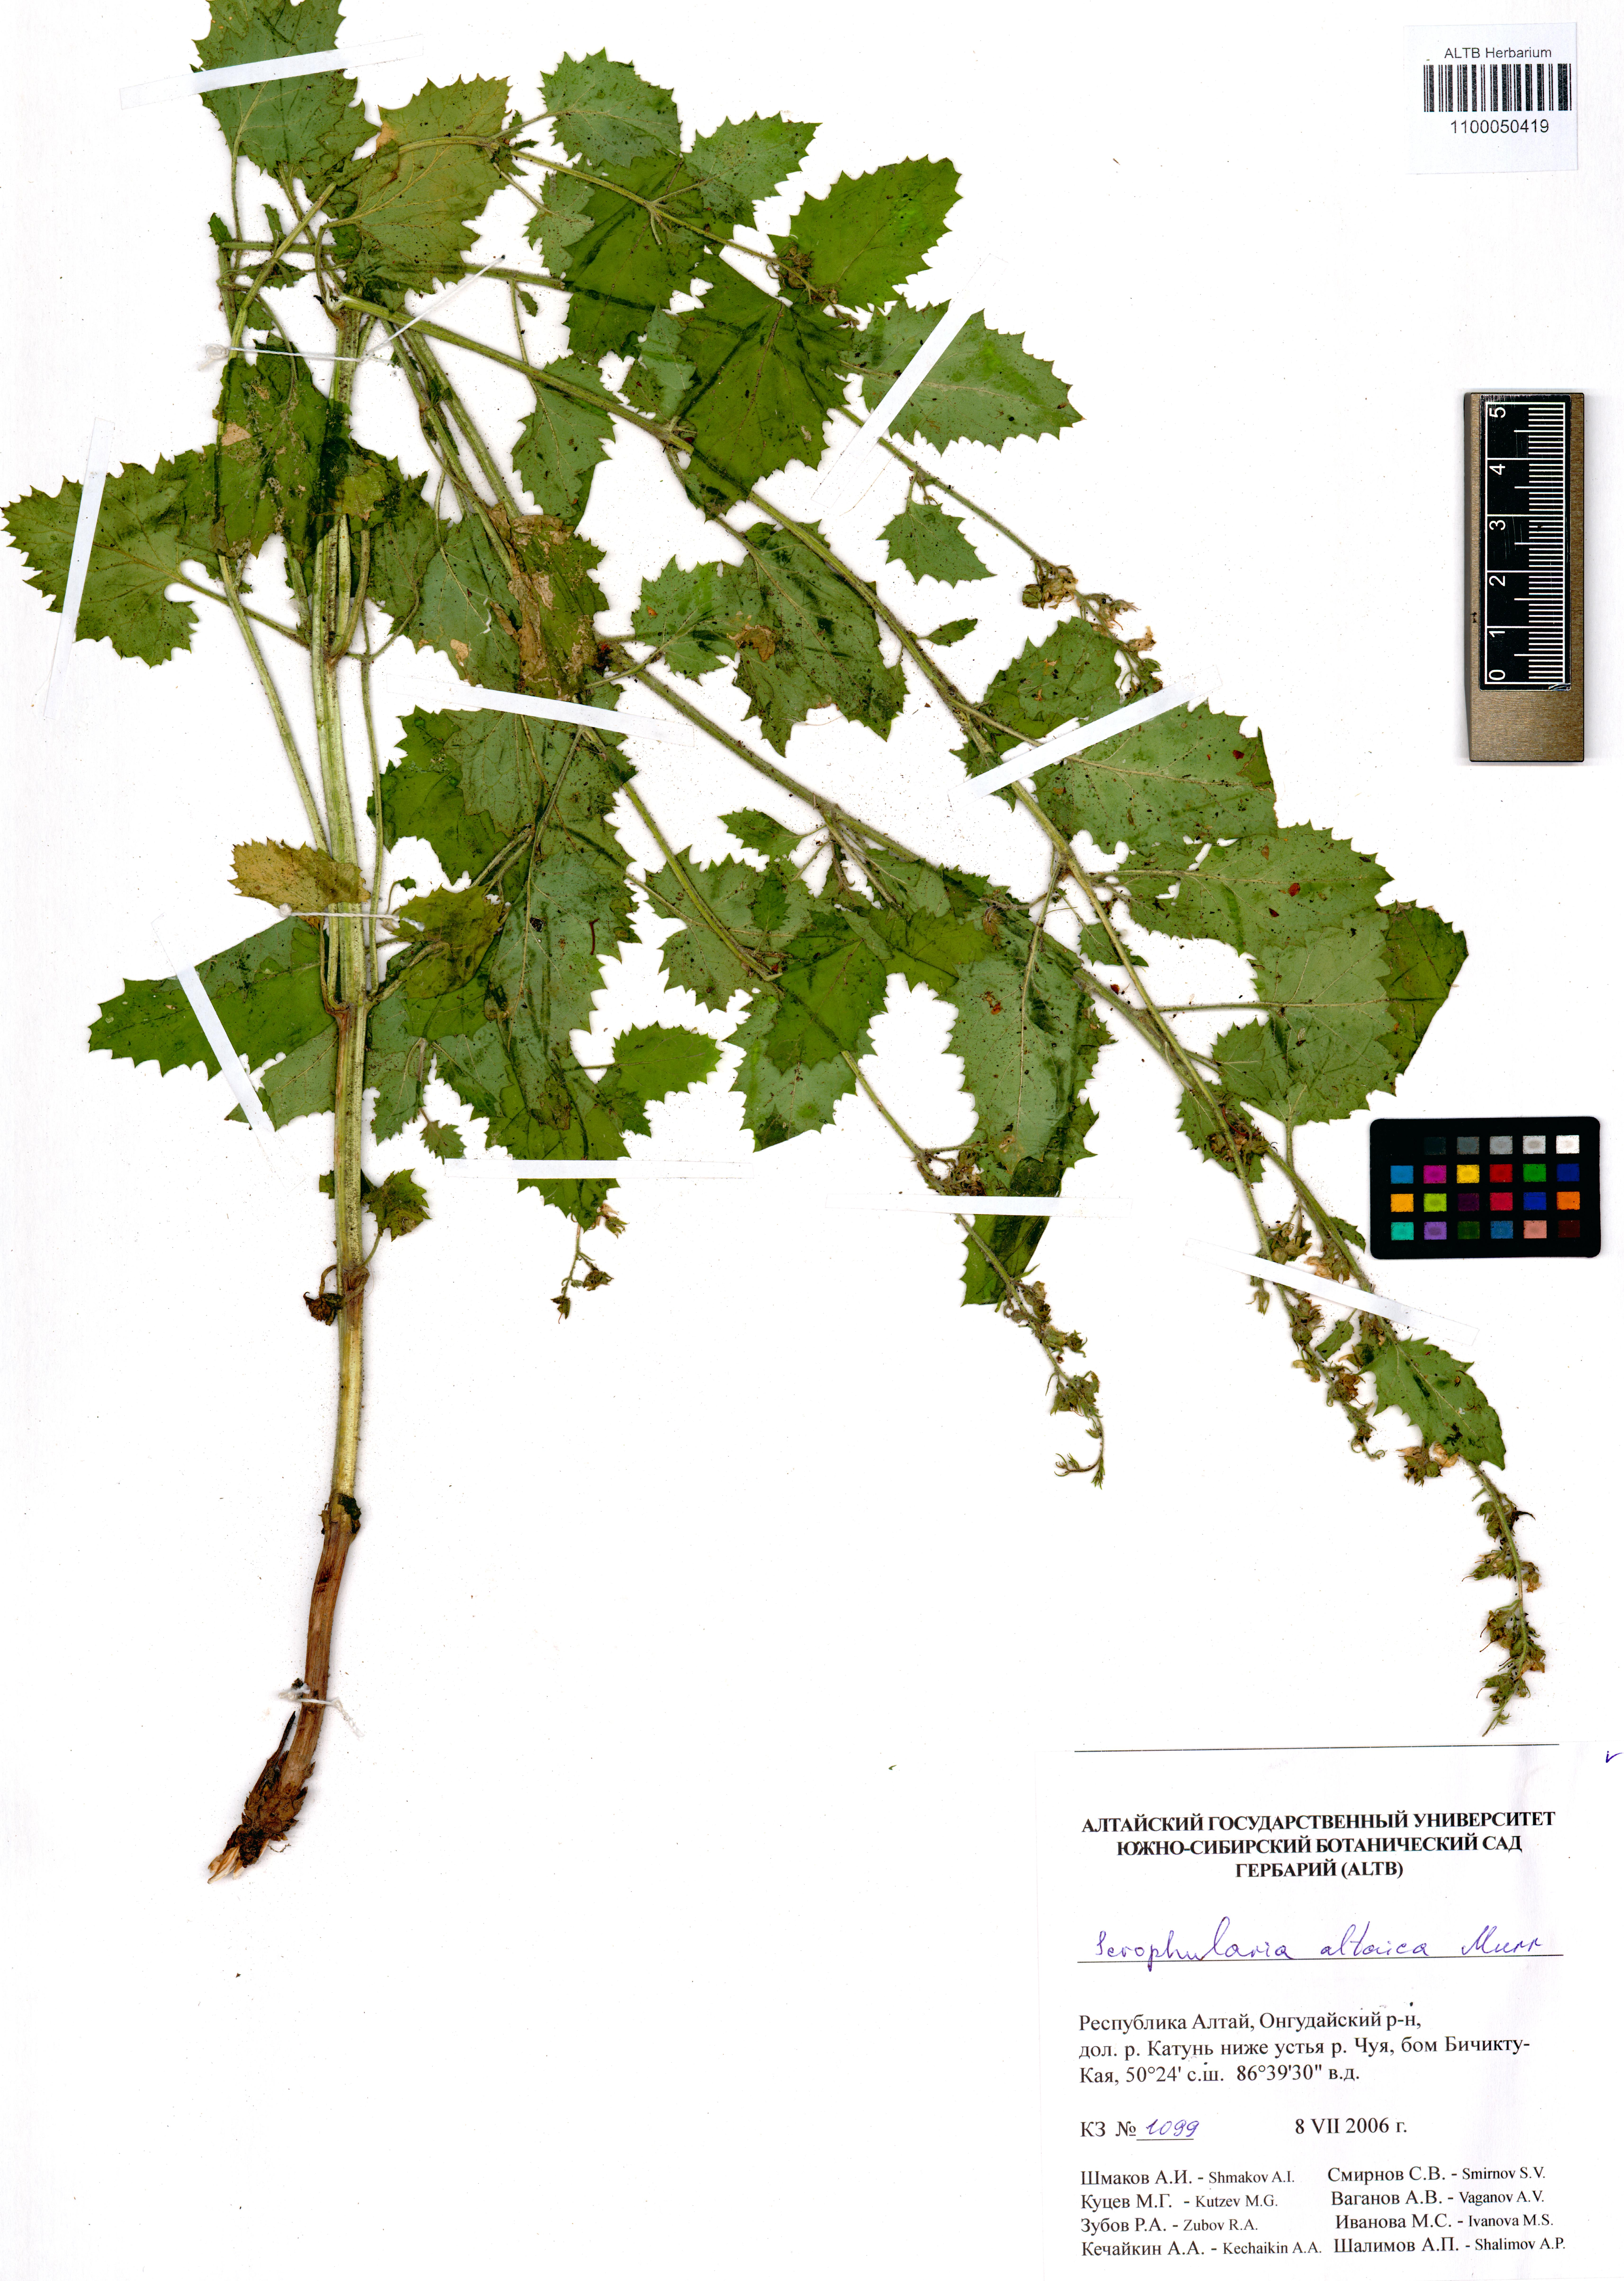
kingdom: Plantae
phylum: Tracheophyta
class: Magnoliopsida
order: Lamiales
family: Scrophulariaceae
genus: Scrophularia
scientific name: Scrophularia altaica
